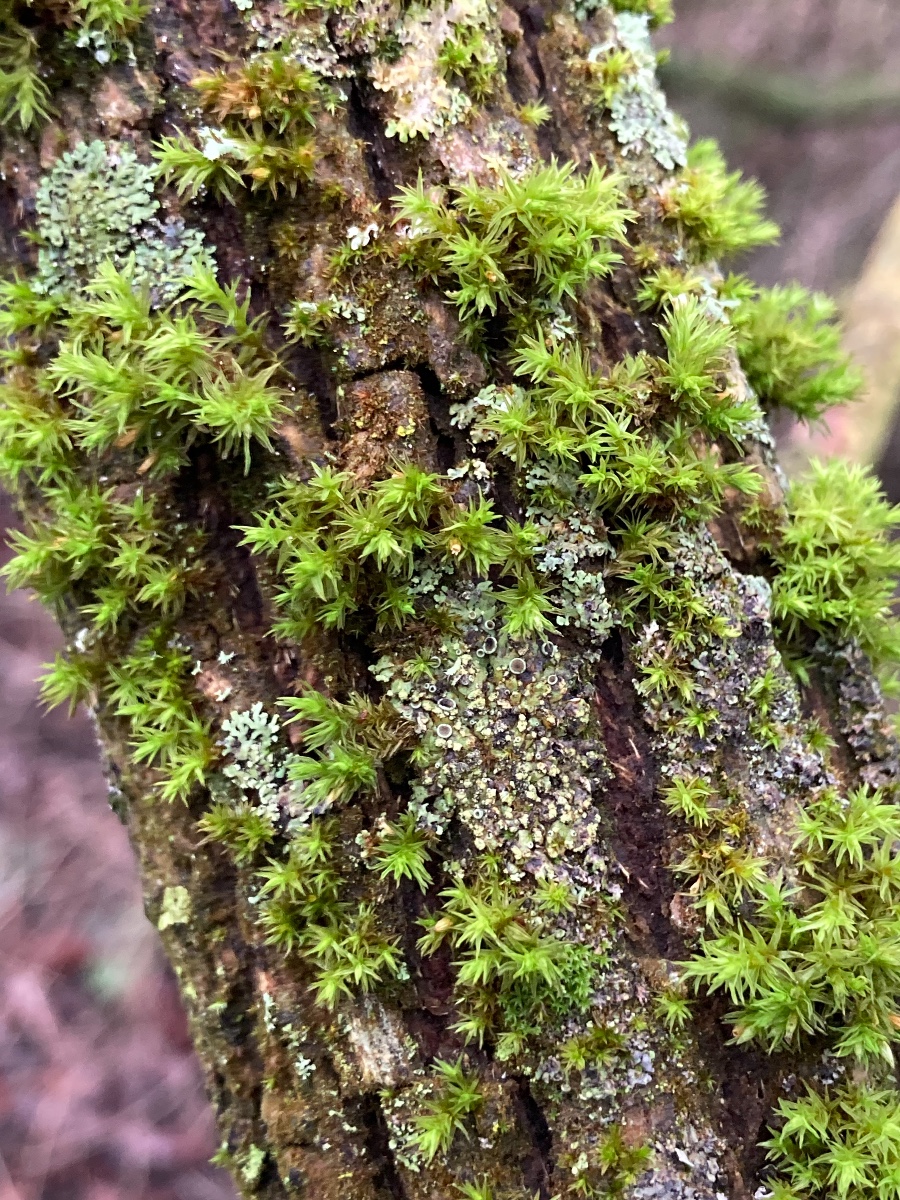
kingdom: Fungi
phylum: Ascomycota
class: Lecanoromycetes
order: Caliciales
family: Physciaceae
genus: Phaeophyscia
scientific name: Phaeophyscia orbicularis
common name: grågrøn rosetlav
